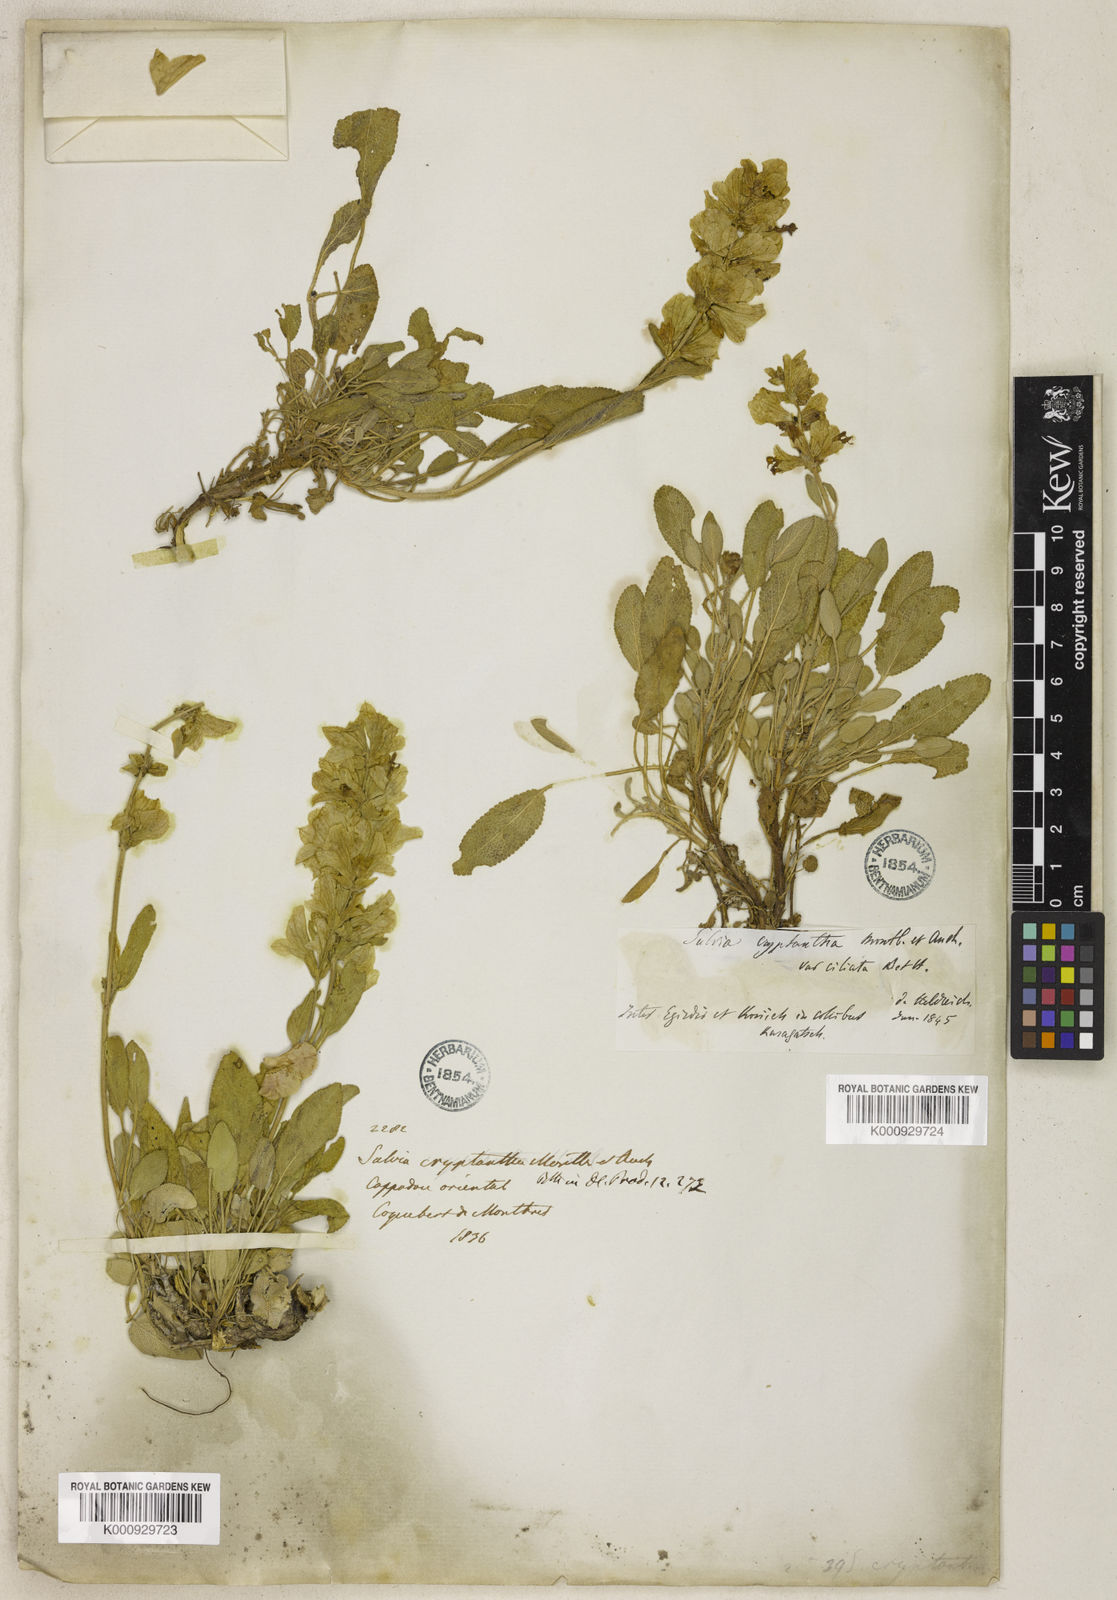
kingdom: Plantae
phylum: Tracheophyta
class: Magnoliopsida
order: Lamiales
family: Lamiaceae
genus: Salvia
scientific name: Salvia absconditiflora
